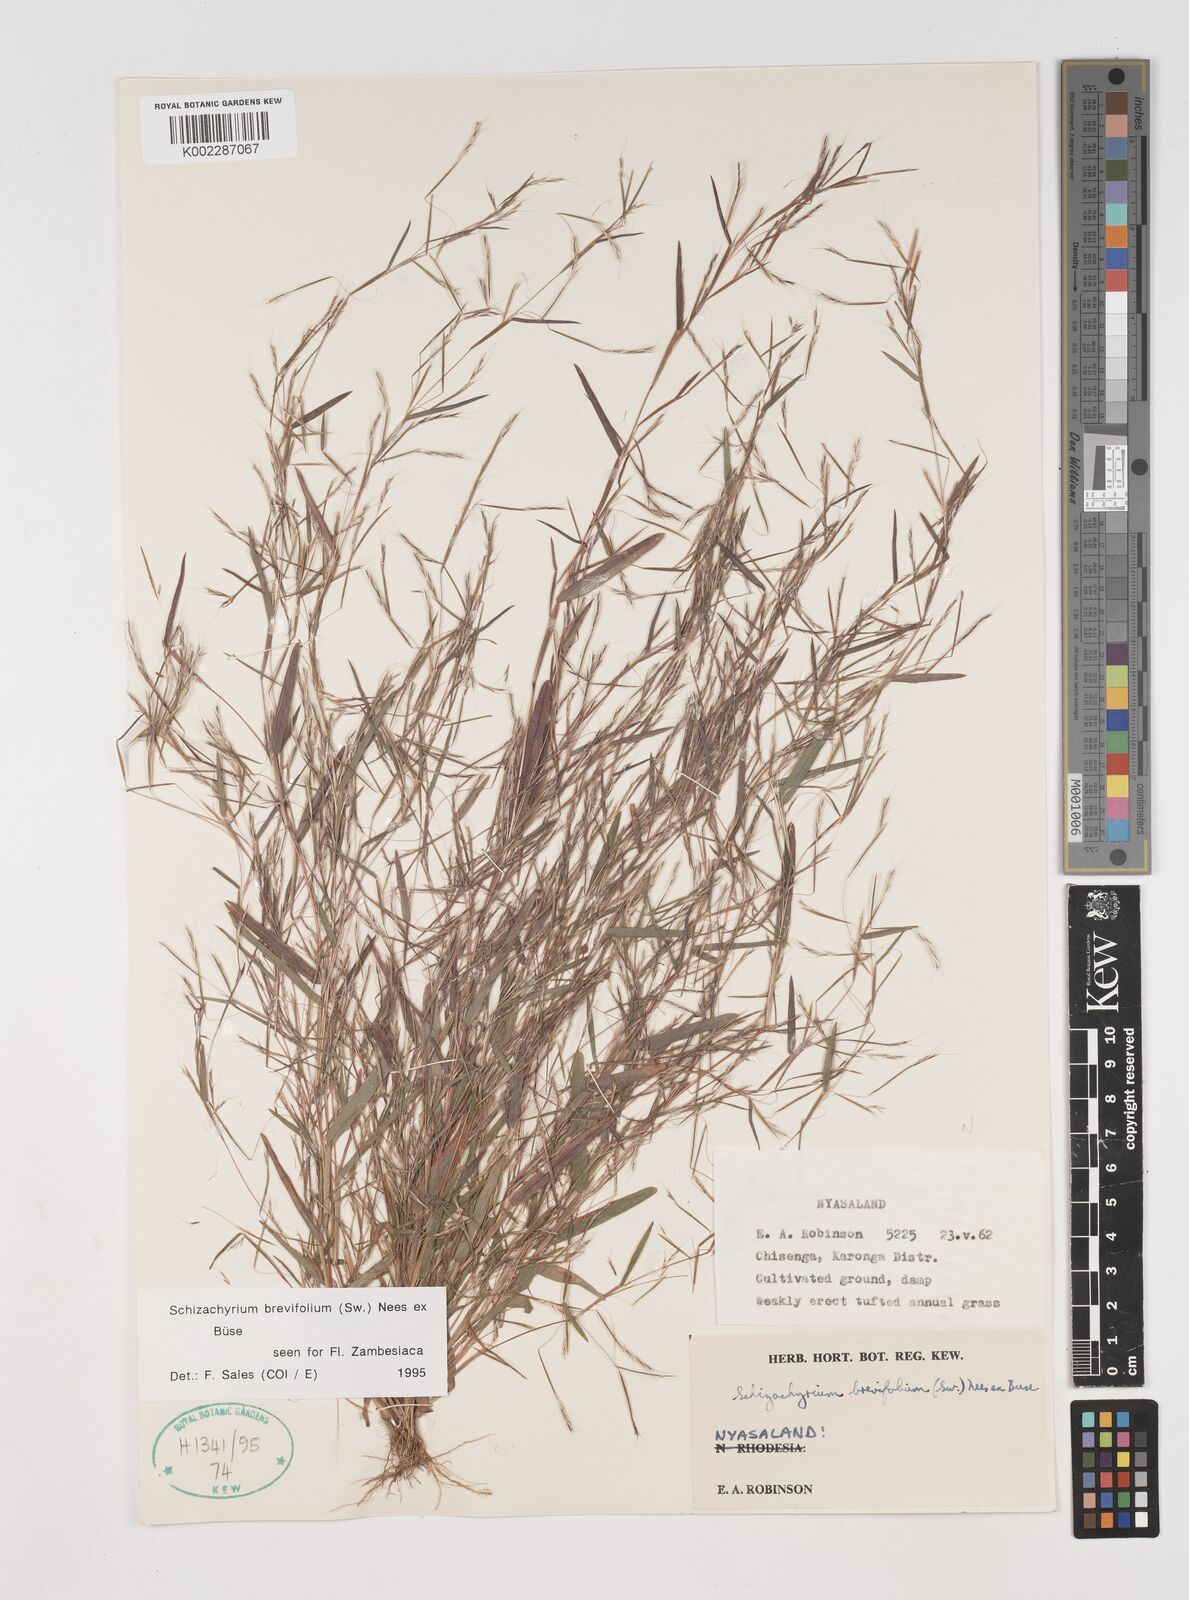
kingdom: Plantae
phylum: Tracheophyta
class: Liliopsida
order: Poales
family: Poaceae
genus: Schizachyrium
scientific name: Schizachyrium brevifolium
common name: Serillo dulce
